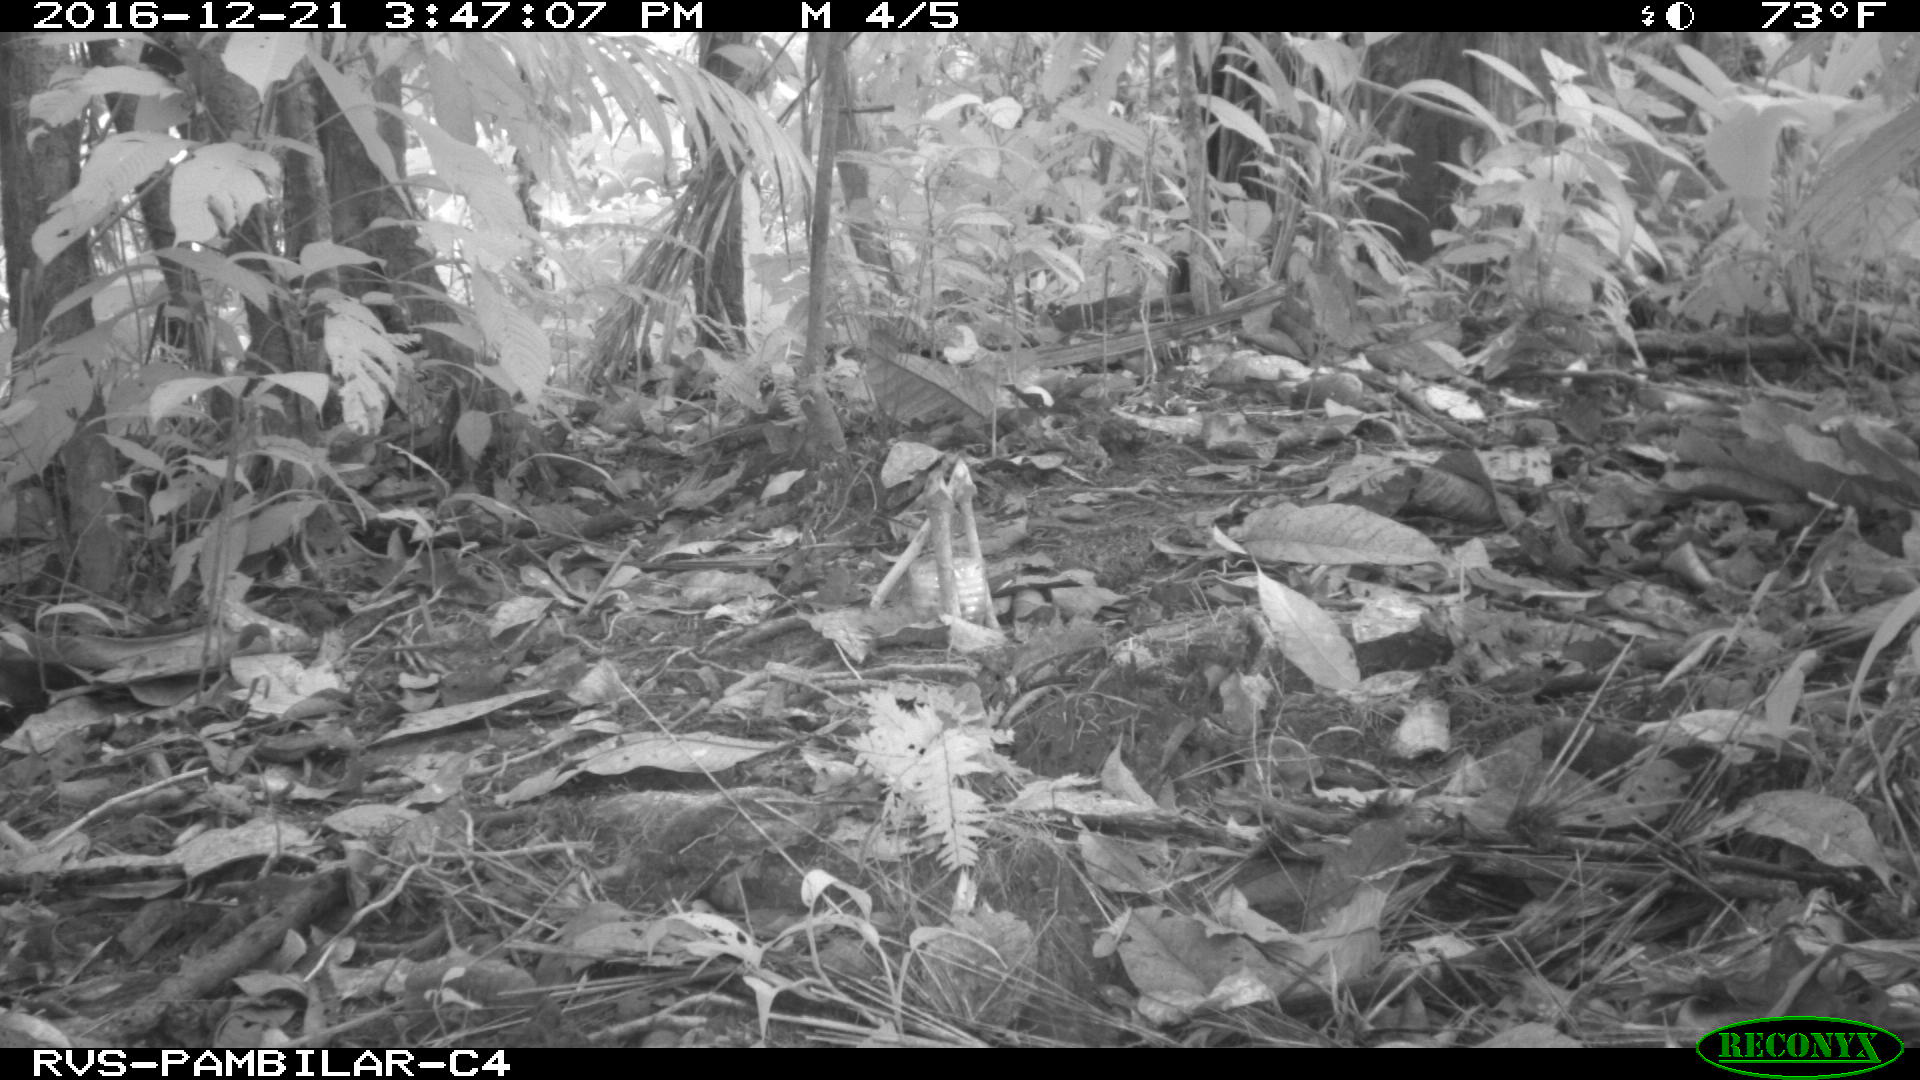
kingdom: Animalia
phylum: Chordata
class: Mammalia
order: Rodentia
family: Dasyproctidae
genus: Dasyprocta
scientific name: Dasyprocta punctata
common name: Central american agouti
